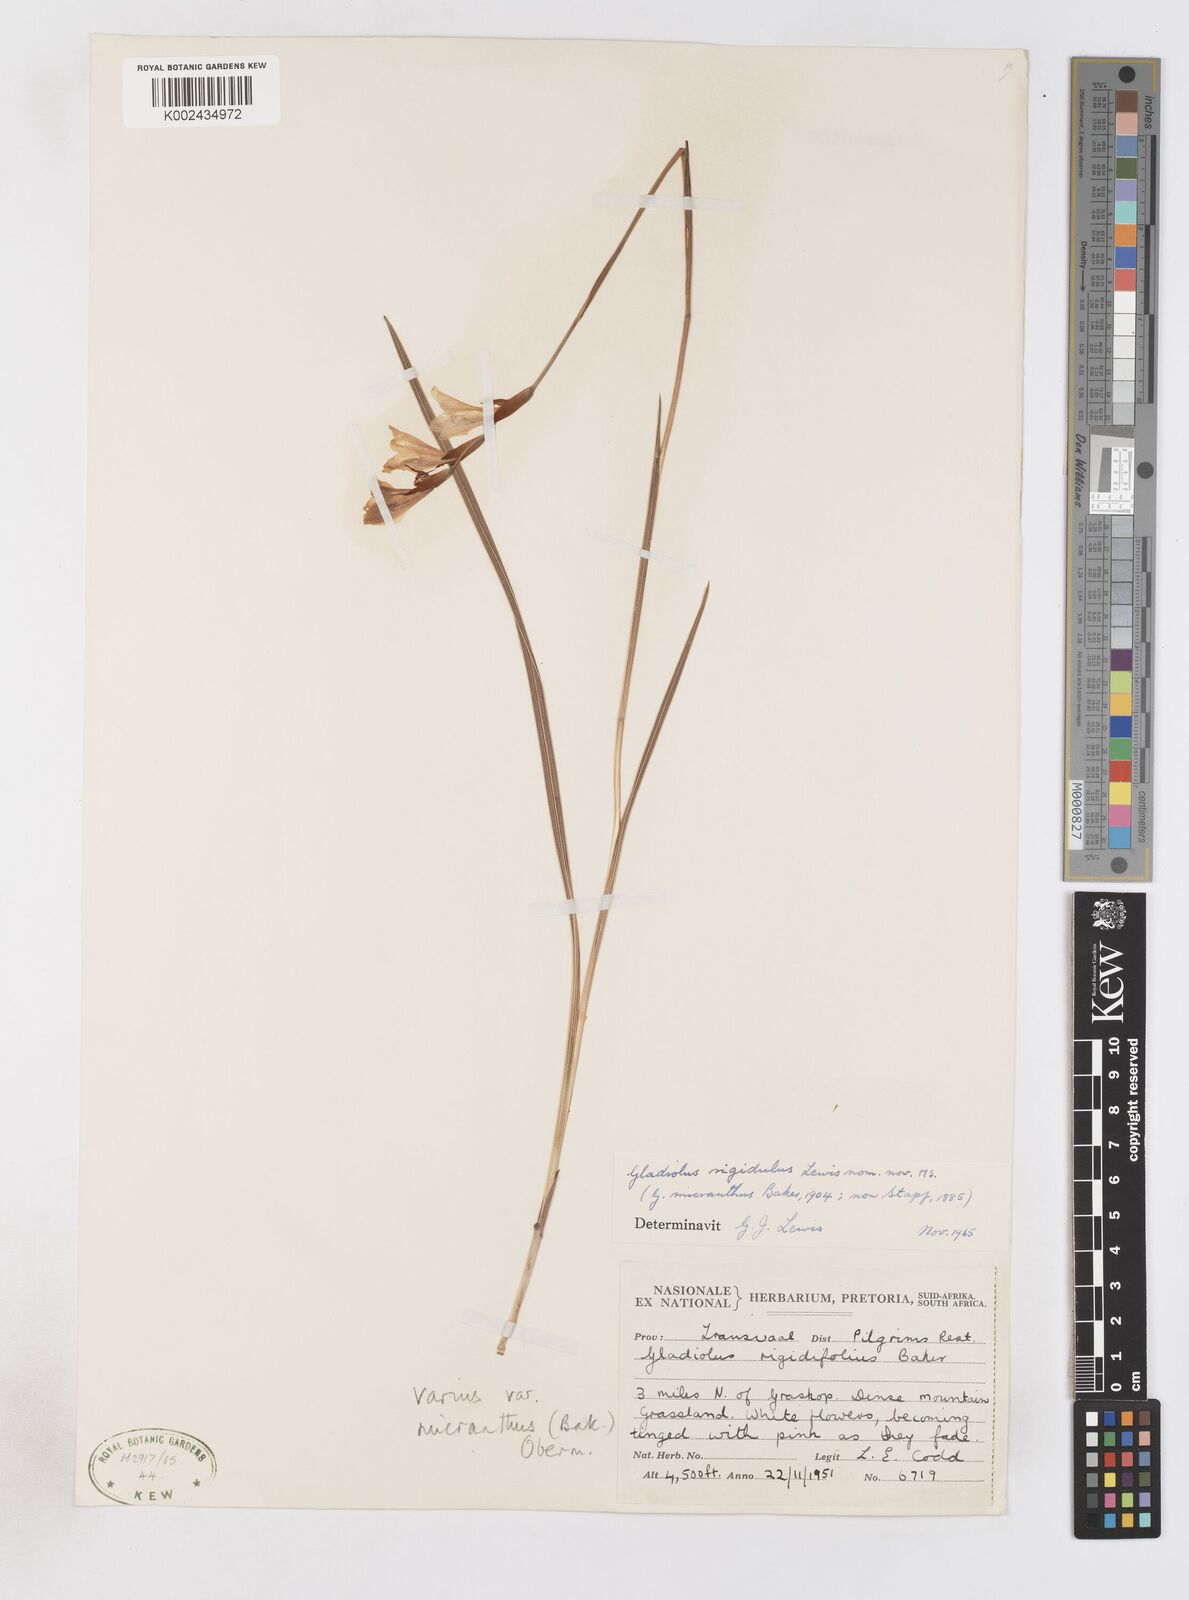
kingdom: Plantae
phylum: Tracheophyta
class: Liliopsida
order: Asparagales
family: Iridaceae
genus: Gladiolus
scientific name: Gladiolus ferrugineus
